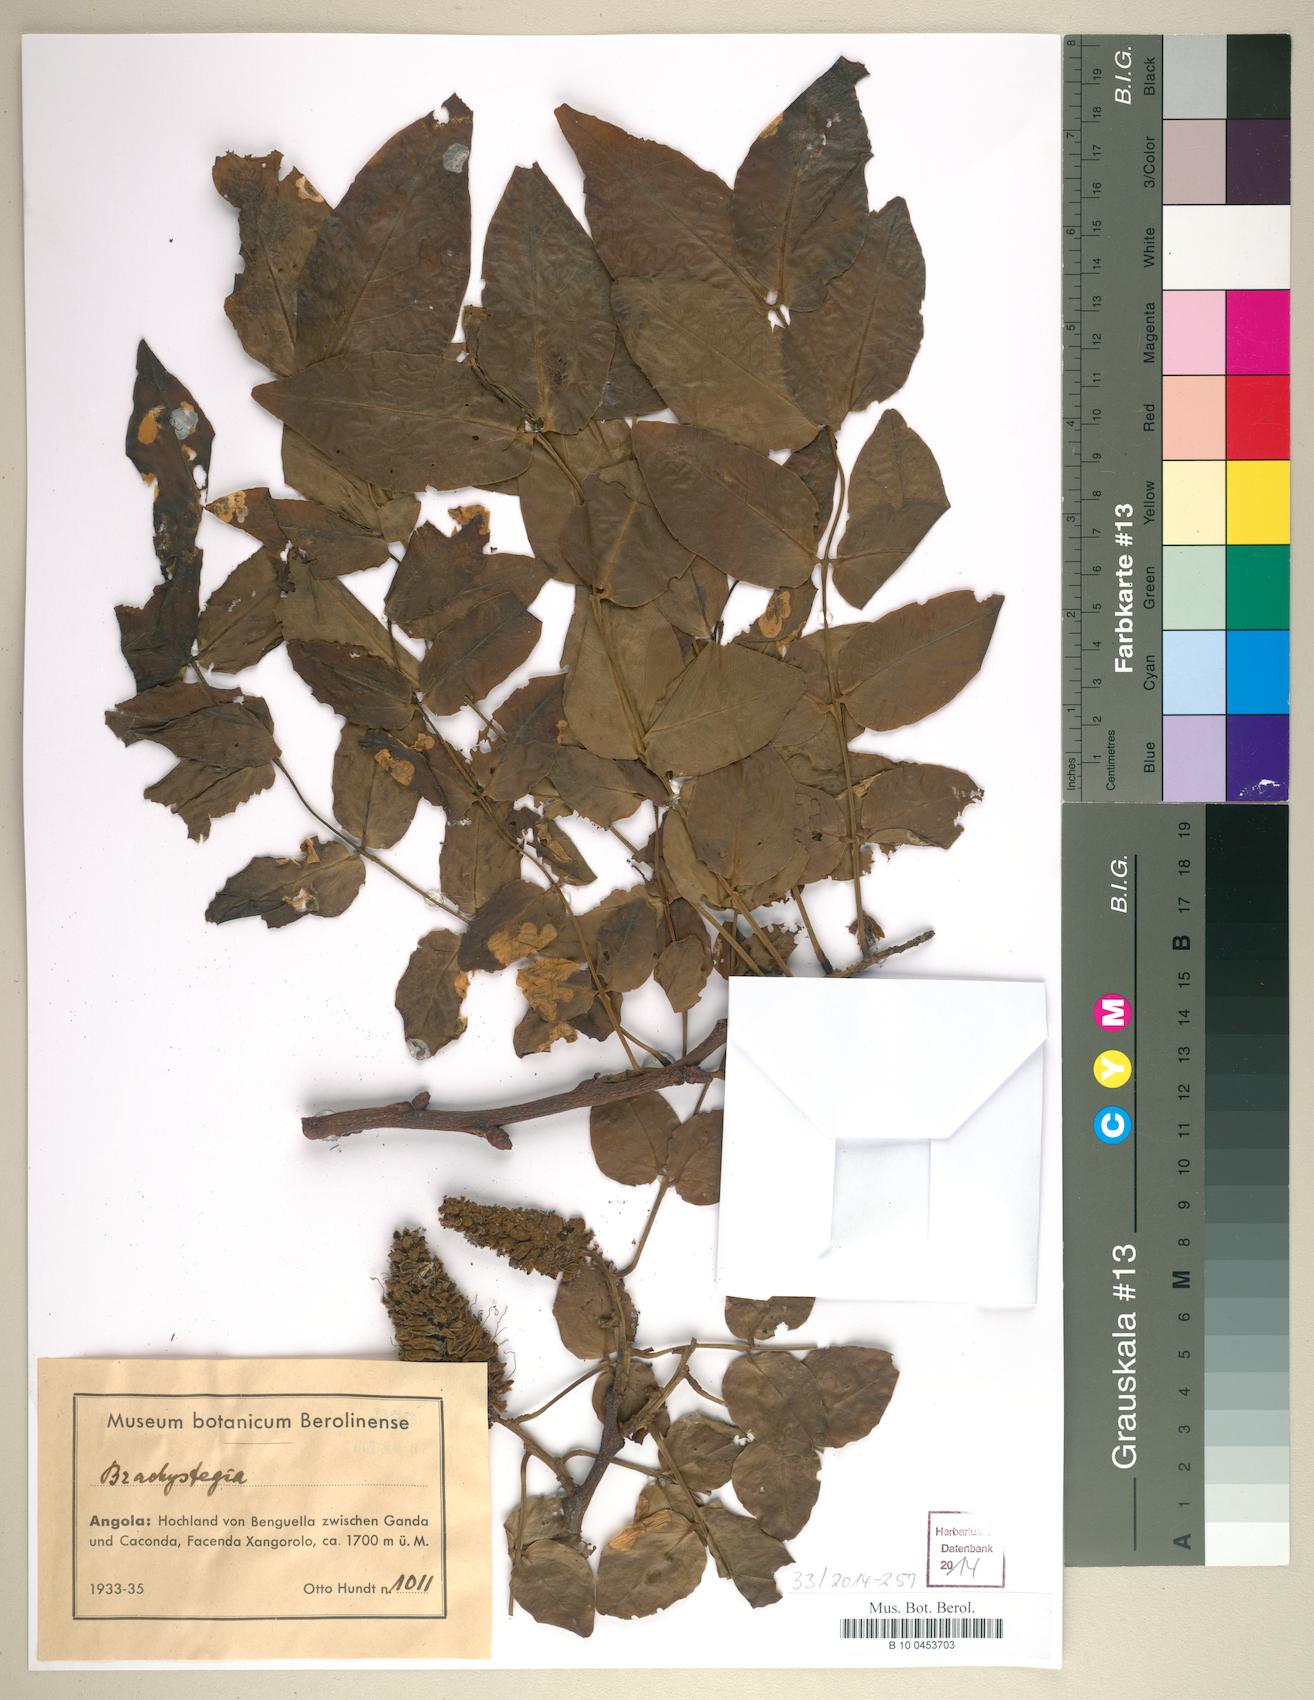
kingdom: Plantae
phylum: Tracheophyta
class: Magnoliopsida
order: Fabales
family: Fabaceae
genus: Brachystegia
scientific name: Brachystegia
